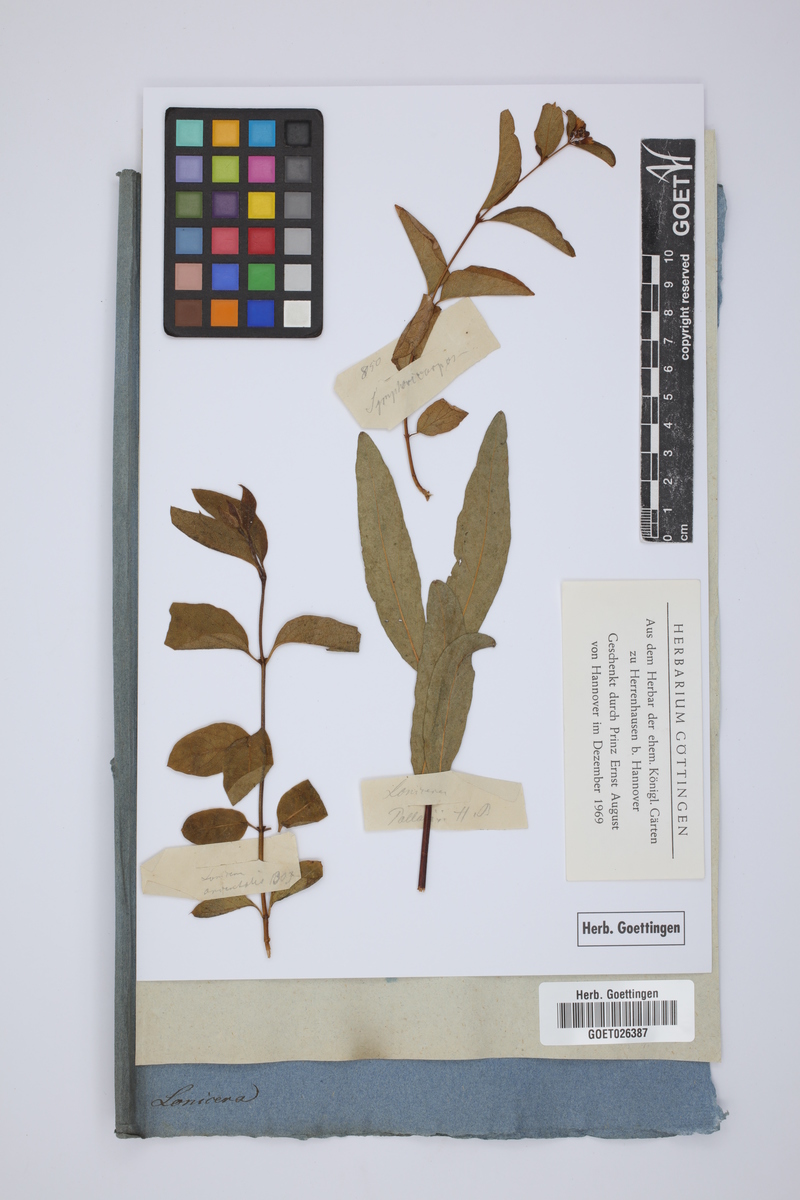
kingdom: Plantae
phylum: Tracheophyta
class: Magnoliopsida
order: Dipsacales
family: Caprifoliaceae
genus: Lonicera
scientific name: Lonicera caerulea
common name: Blue honeysuckle
